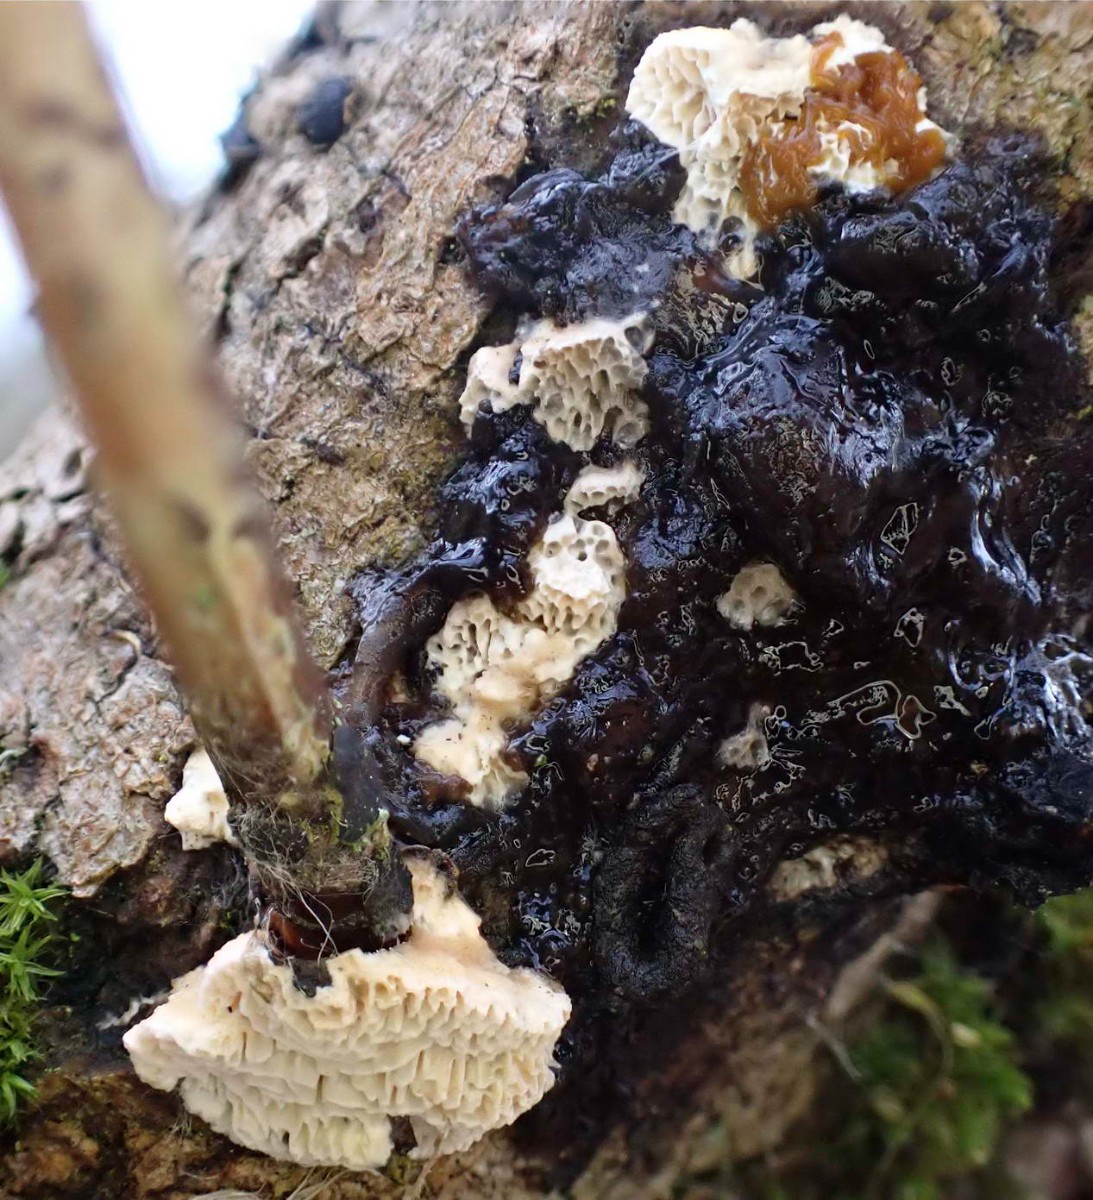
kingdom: Fungi
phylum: Basidiomycota
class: Agaricomycetes
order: Polyporales
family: Fomitopsidaceae
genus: Fomitopsis
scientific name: Fomitopsis
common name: pile-skiveporesvamp
